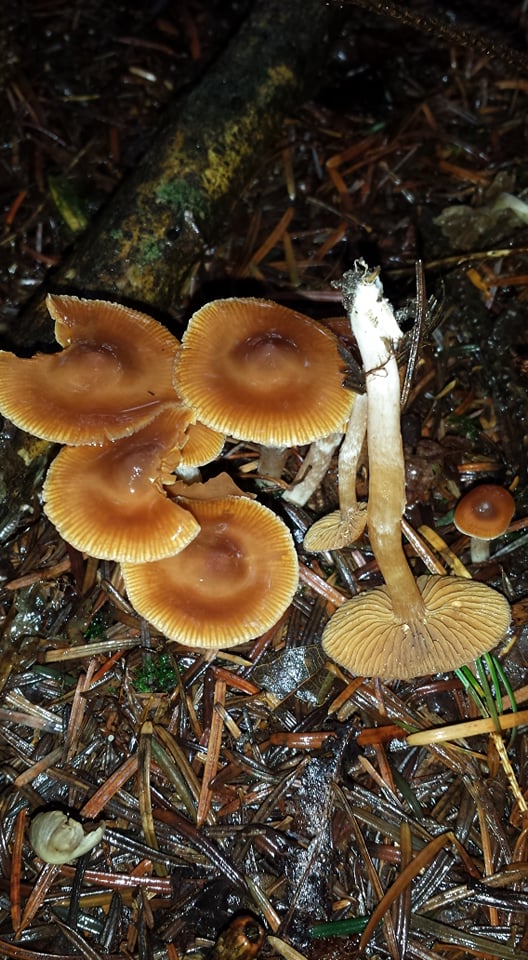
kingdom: Fungi
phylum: Basidiomycota
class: Agaricomycetes
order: Agaricales
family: Cortinariaceae
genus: Cortinarius
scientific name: Cortinarius
